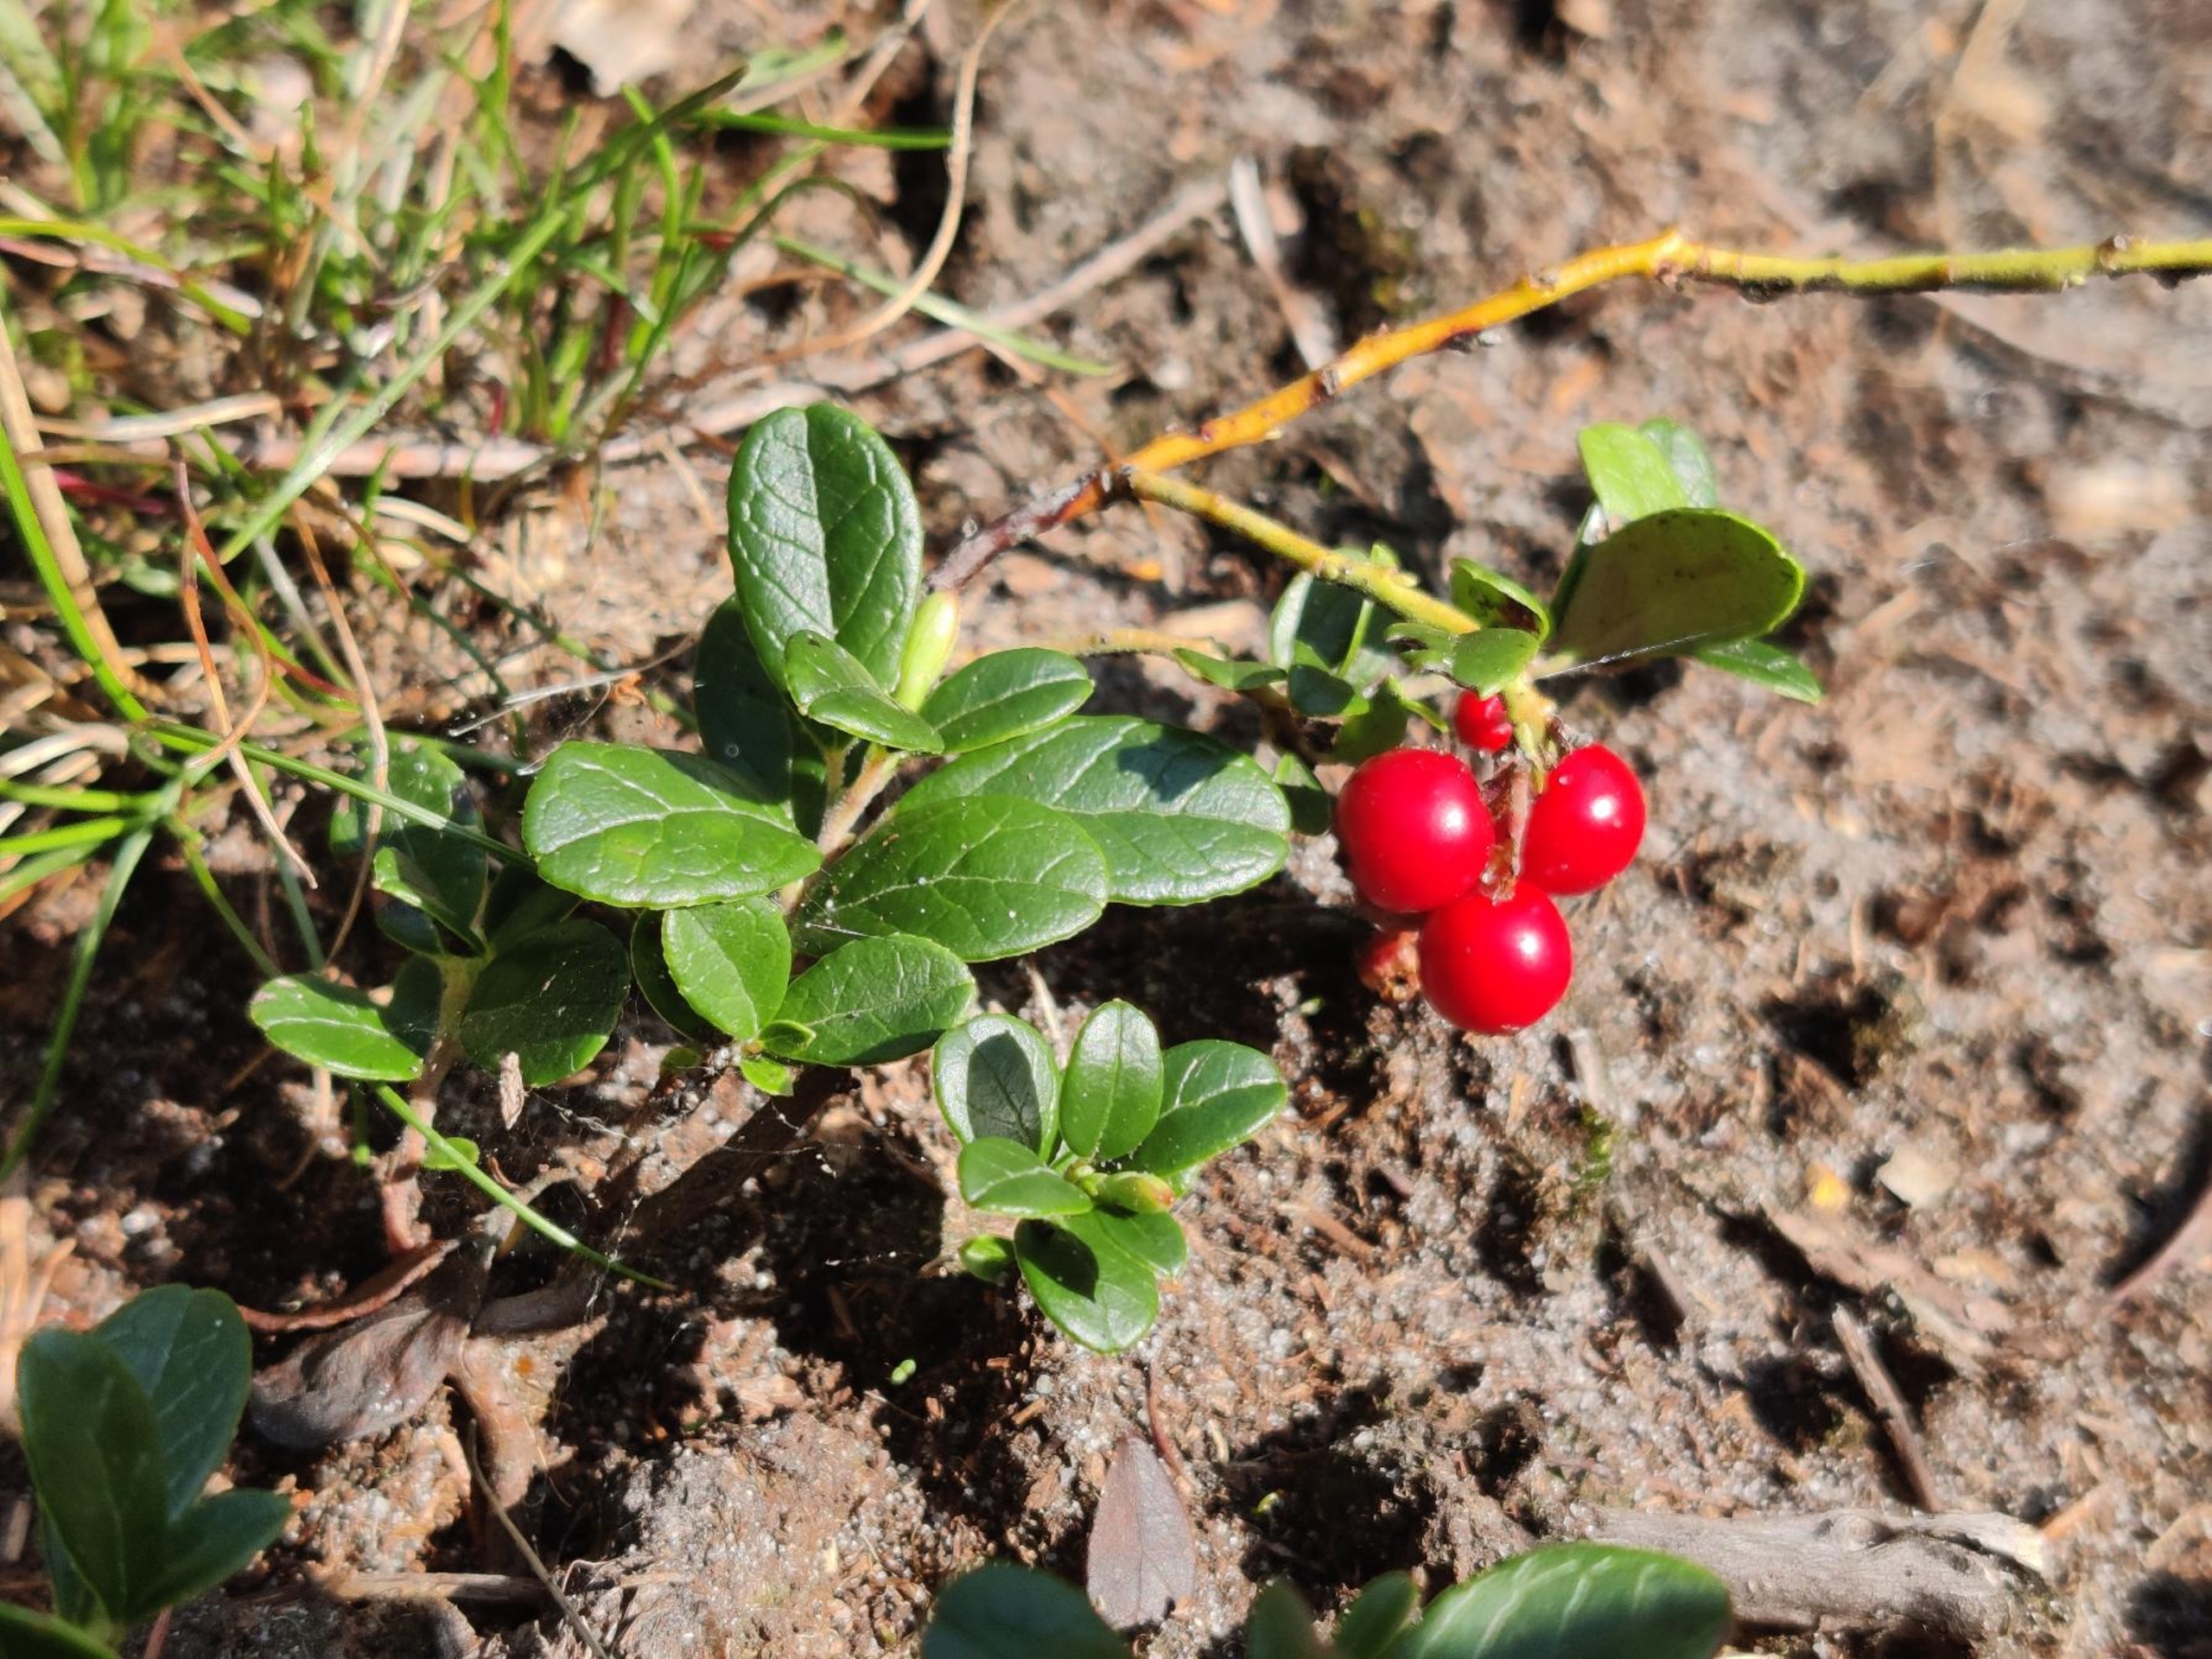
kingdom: Plantae
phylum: Tracheophyta
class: Magnoliopsida
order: Ericales
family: Ericaceae
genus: Vaccinium
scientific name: Vaccinium vitis-idaea
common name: Tyttebær
